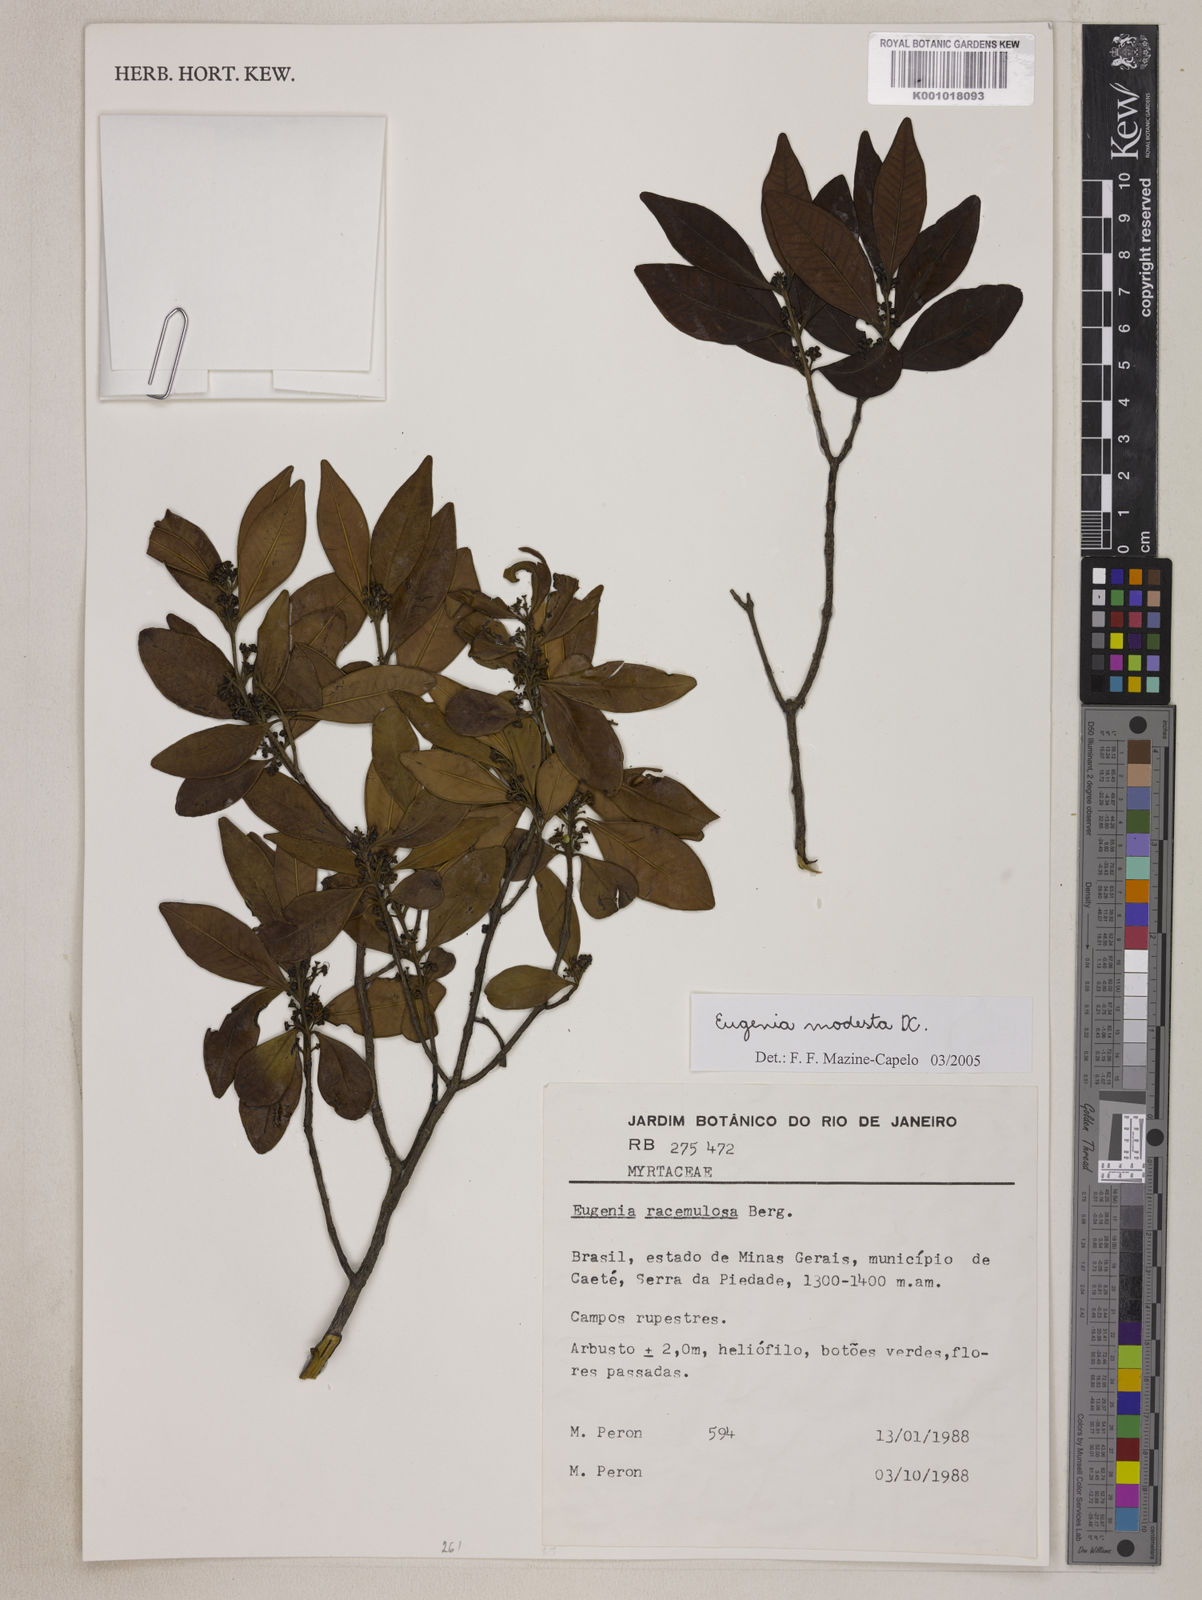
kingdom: Plantae
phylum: Tracheophyta
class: Magnoliopsida
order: Myrtales
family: Myrtaceae
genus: Eugenia
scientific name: Eugenia modesta
